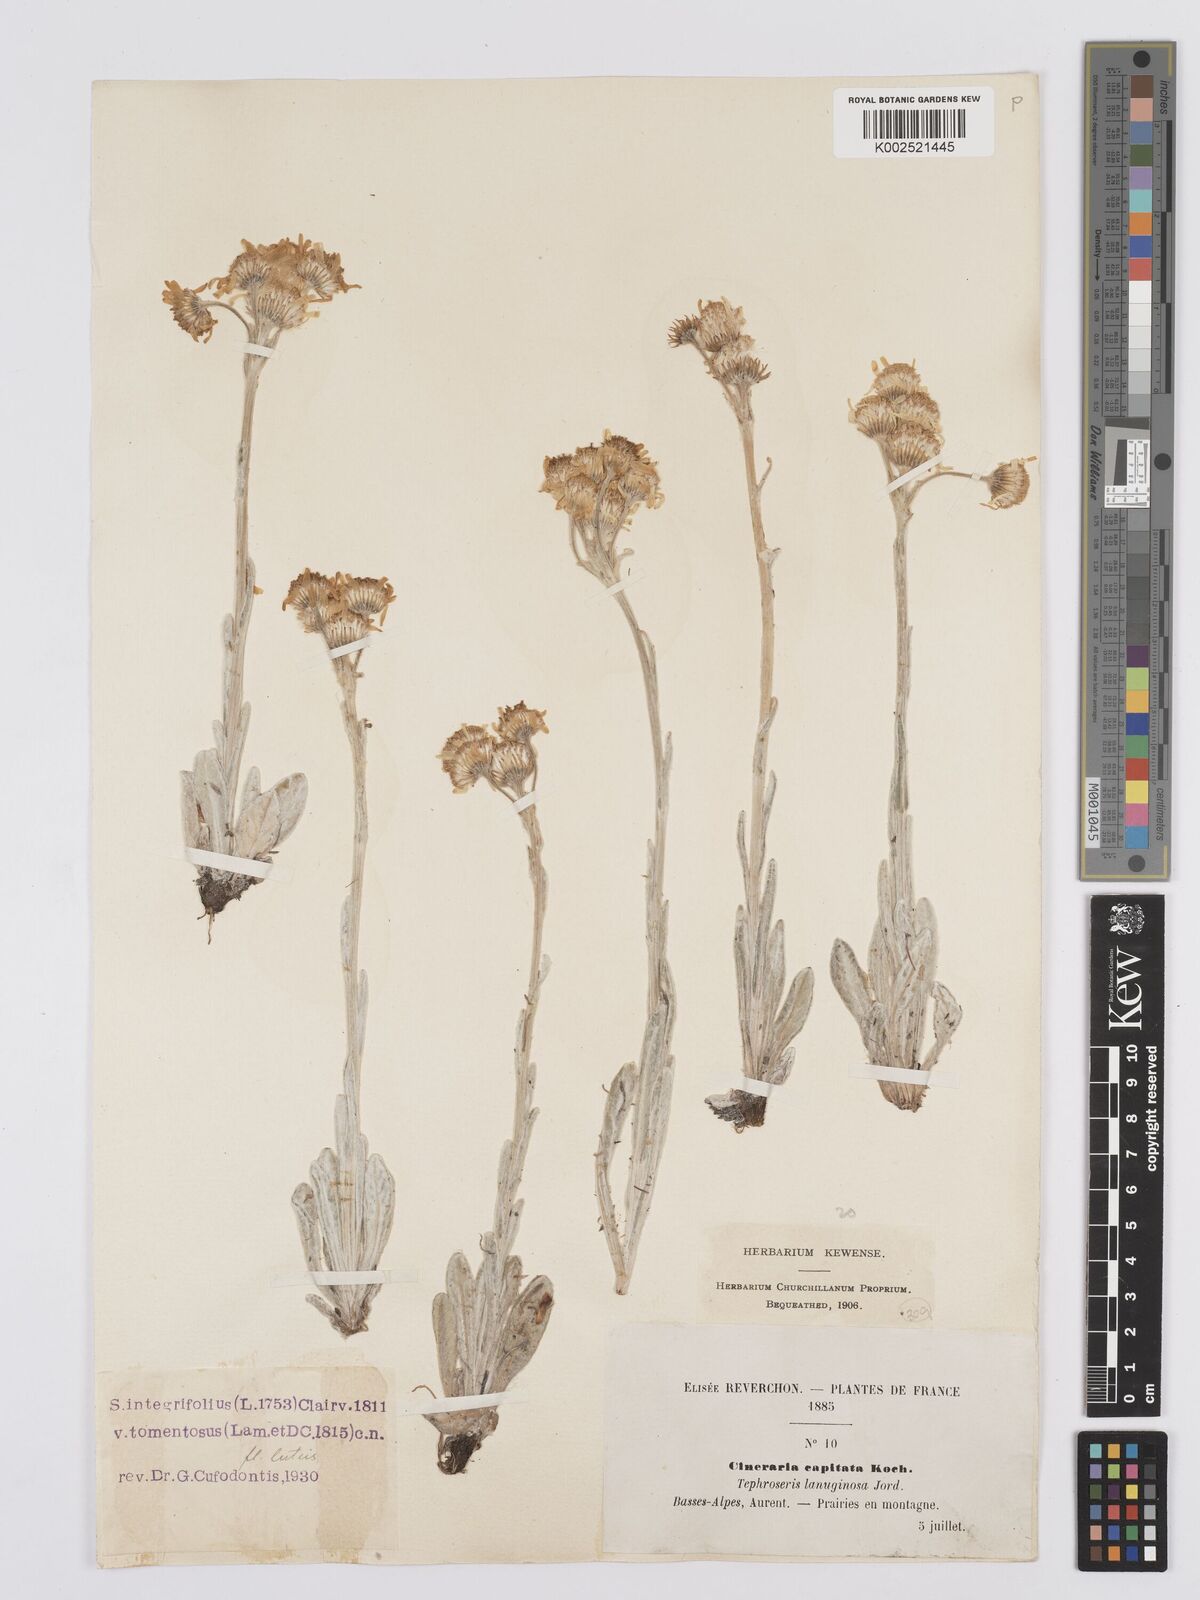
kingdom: Plantae
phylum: Tracheophyta
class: Magnoliopsida
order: Asterales
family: Asteraceae
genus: Tephroseris
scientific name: Tephroseris integrifolia
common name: Field fleawort
